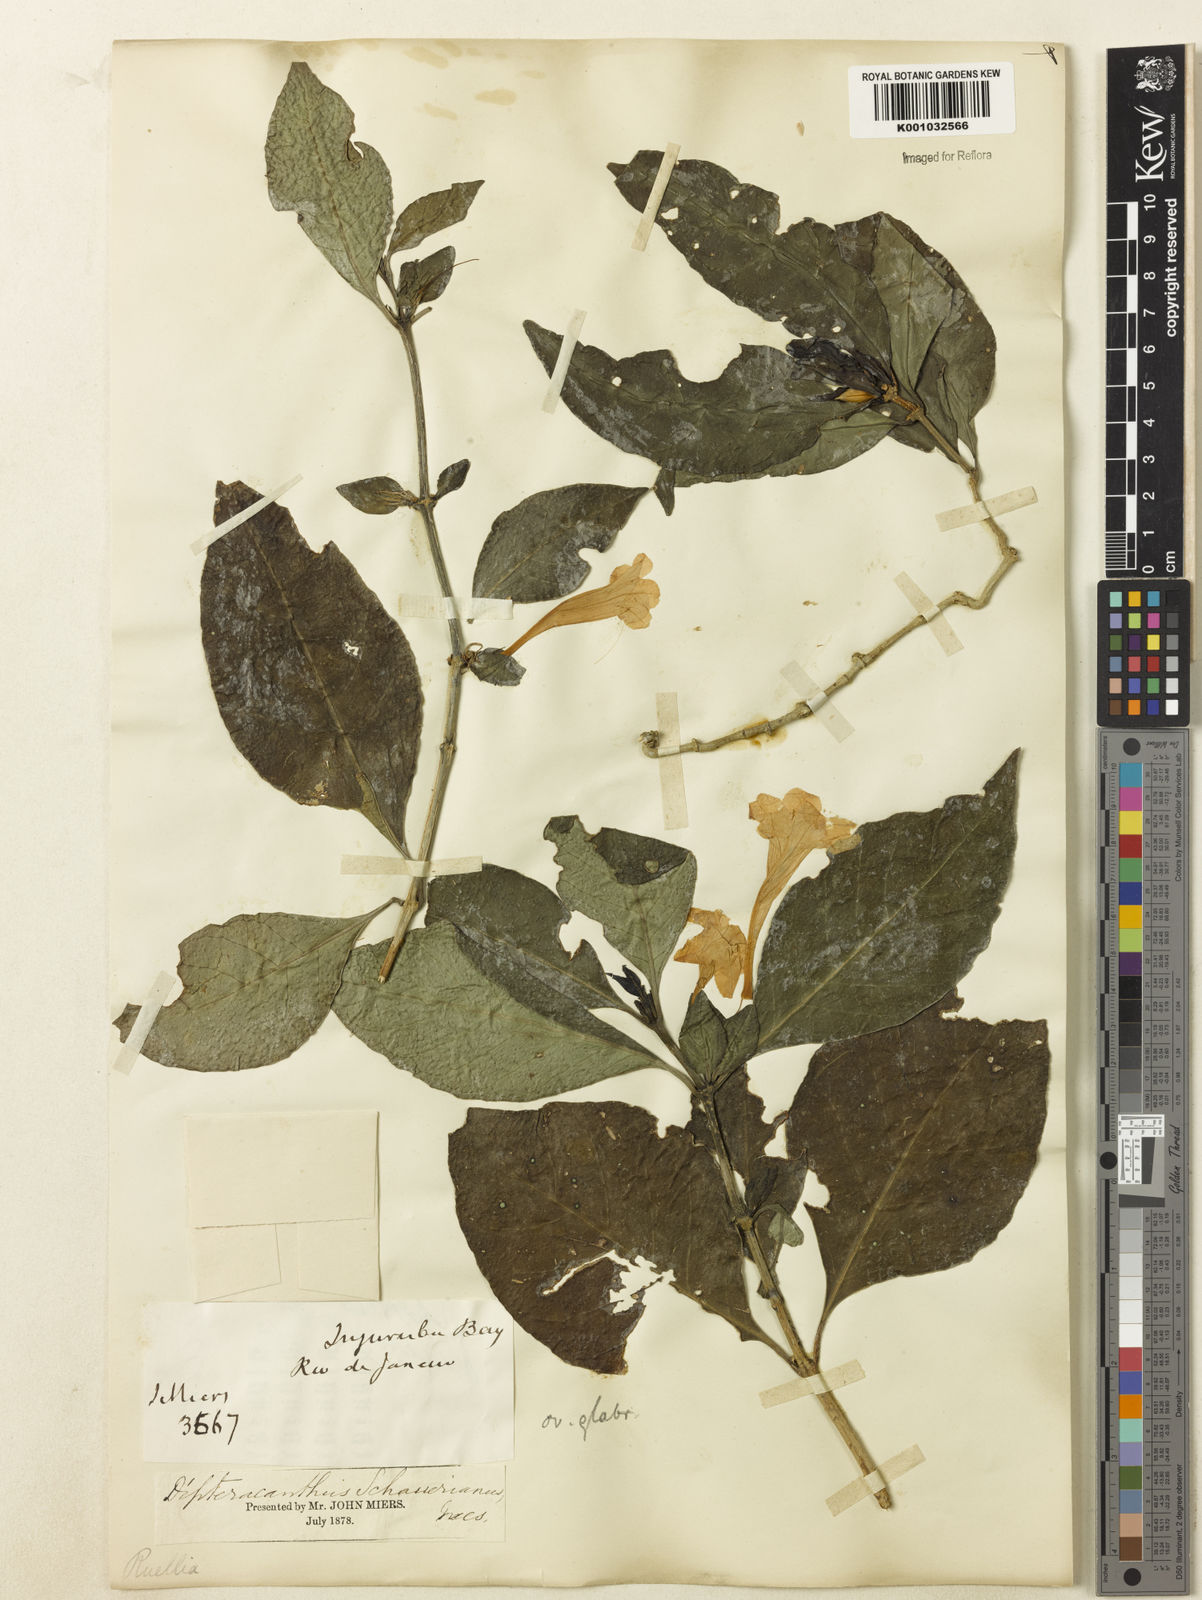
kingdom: Plantae
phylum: Tracheophyta
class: Magnoliopsida
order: Lamiales
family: Acanthaceae
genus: Ruellia
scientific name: Ruellia
